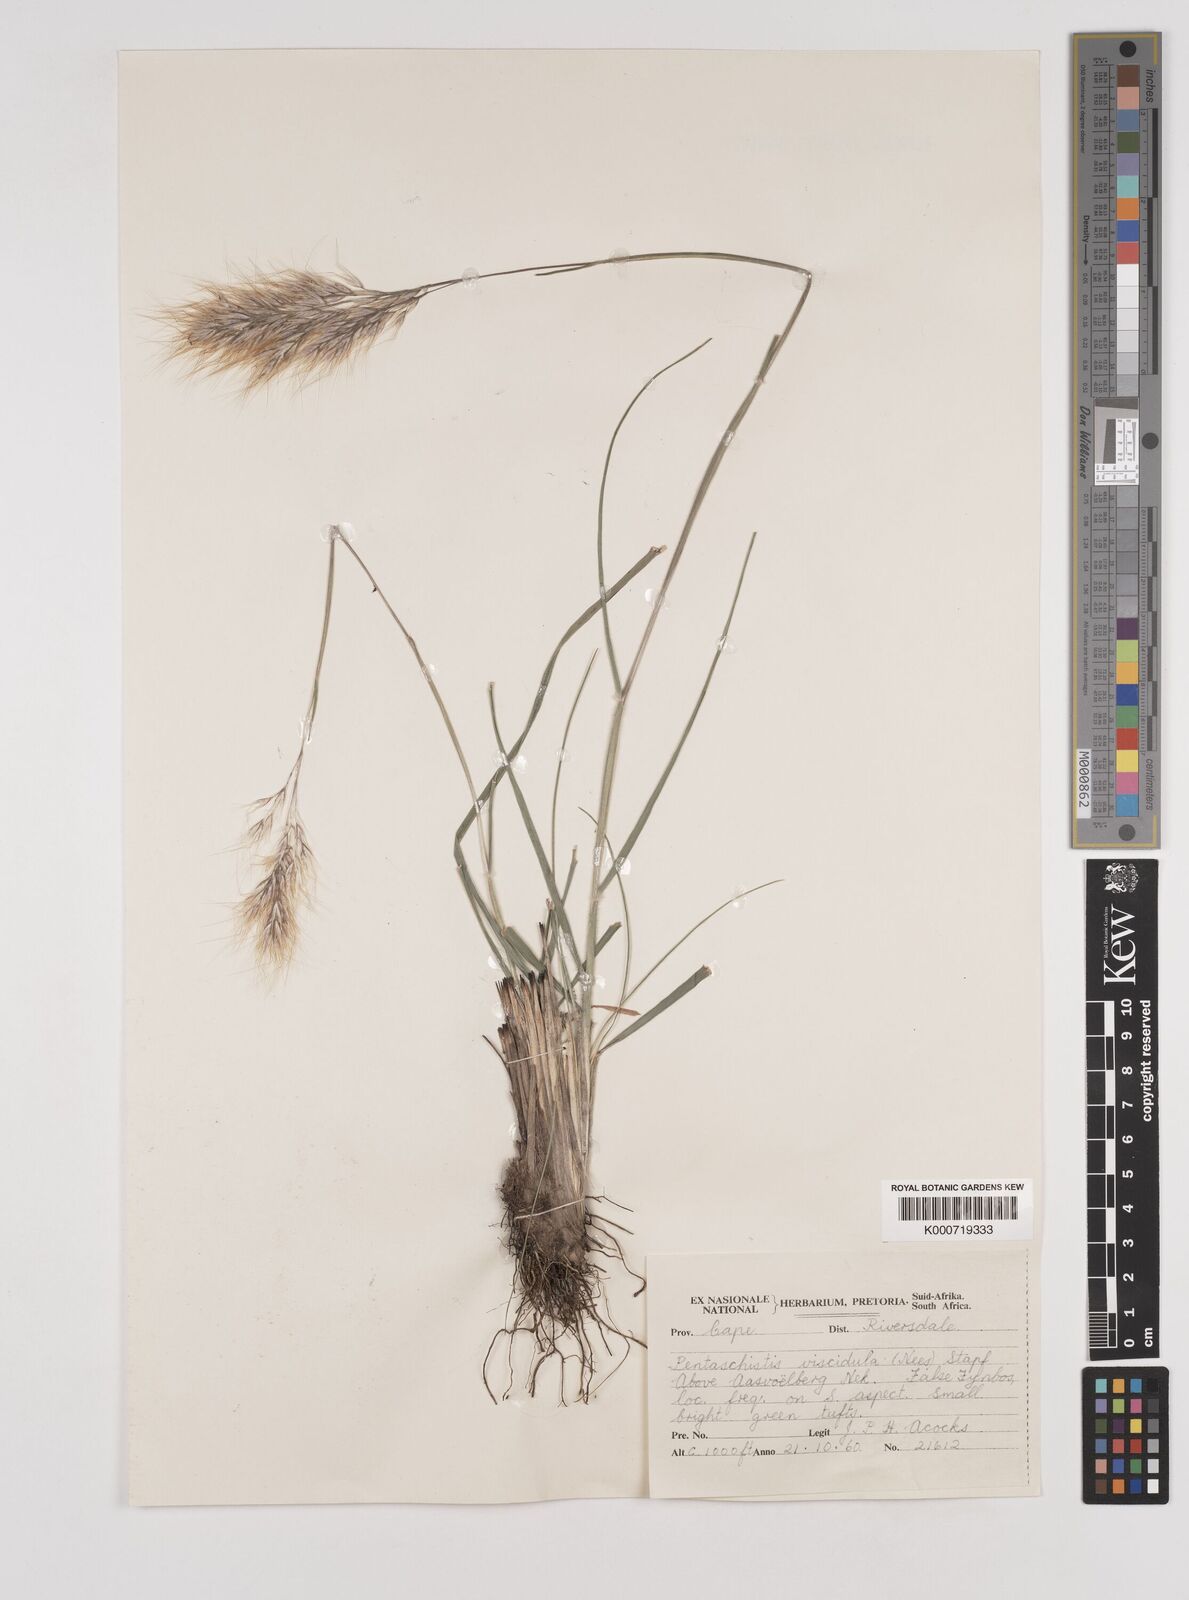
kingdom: Plantae
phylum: Tracheophyta
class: Liliopsida
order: Poales
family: Poaceae
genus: Pentameris
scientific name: Pentameris pallescens
